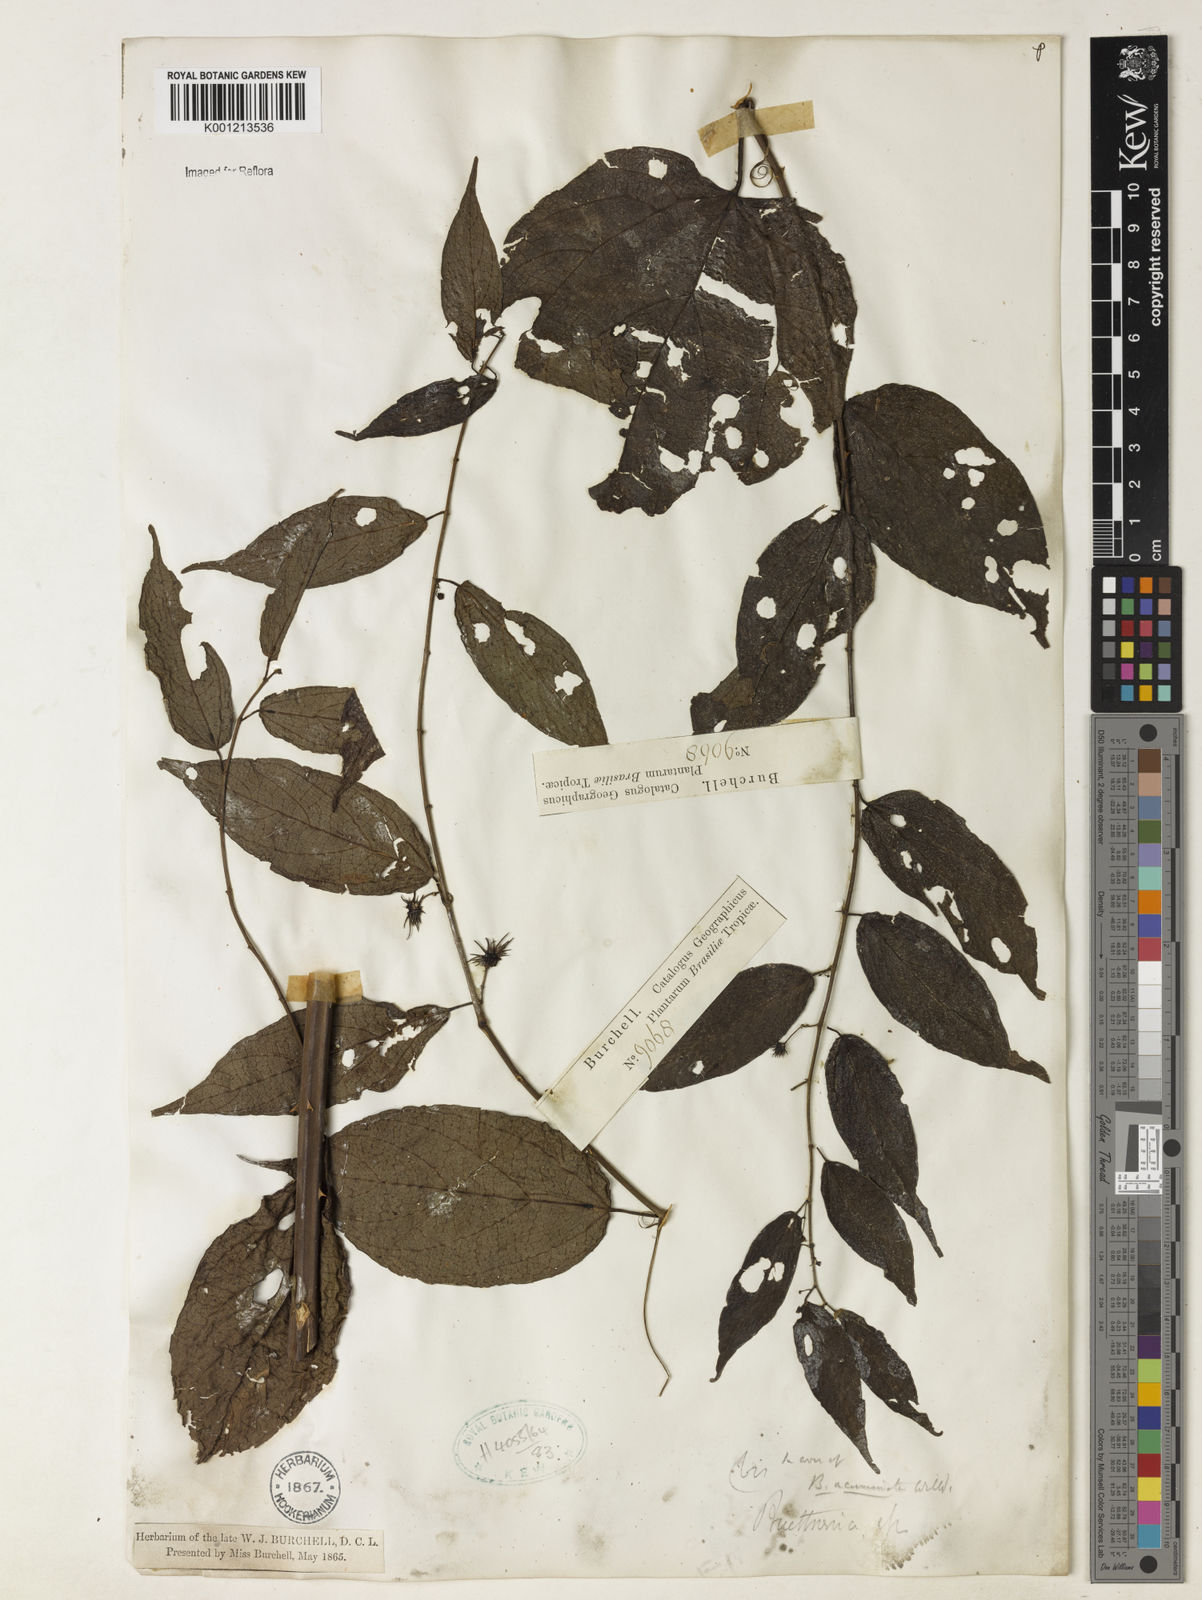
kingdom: Plantae
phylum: Tracheophyta
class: Magnoliopsida
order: Malvales
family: Malvaceae
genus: Byttneria
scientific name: Byttneria aculeata
